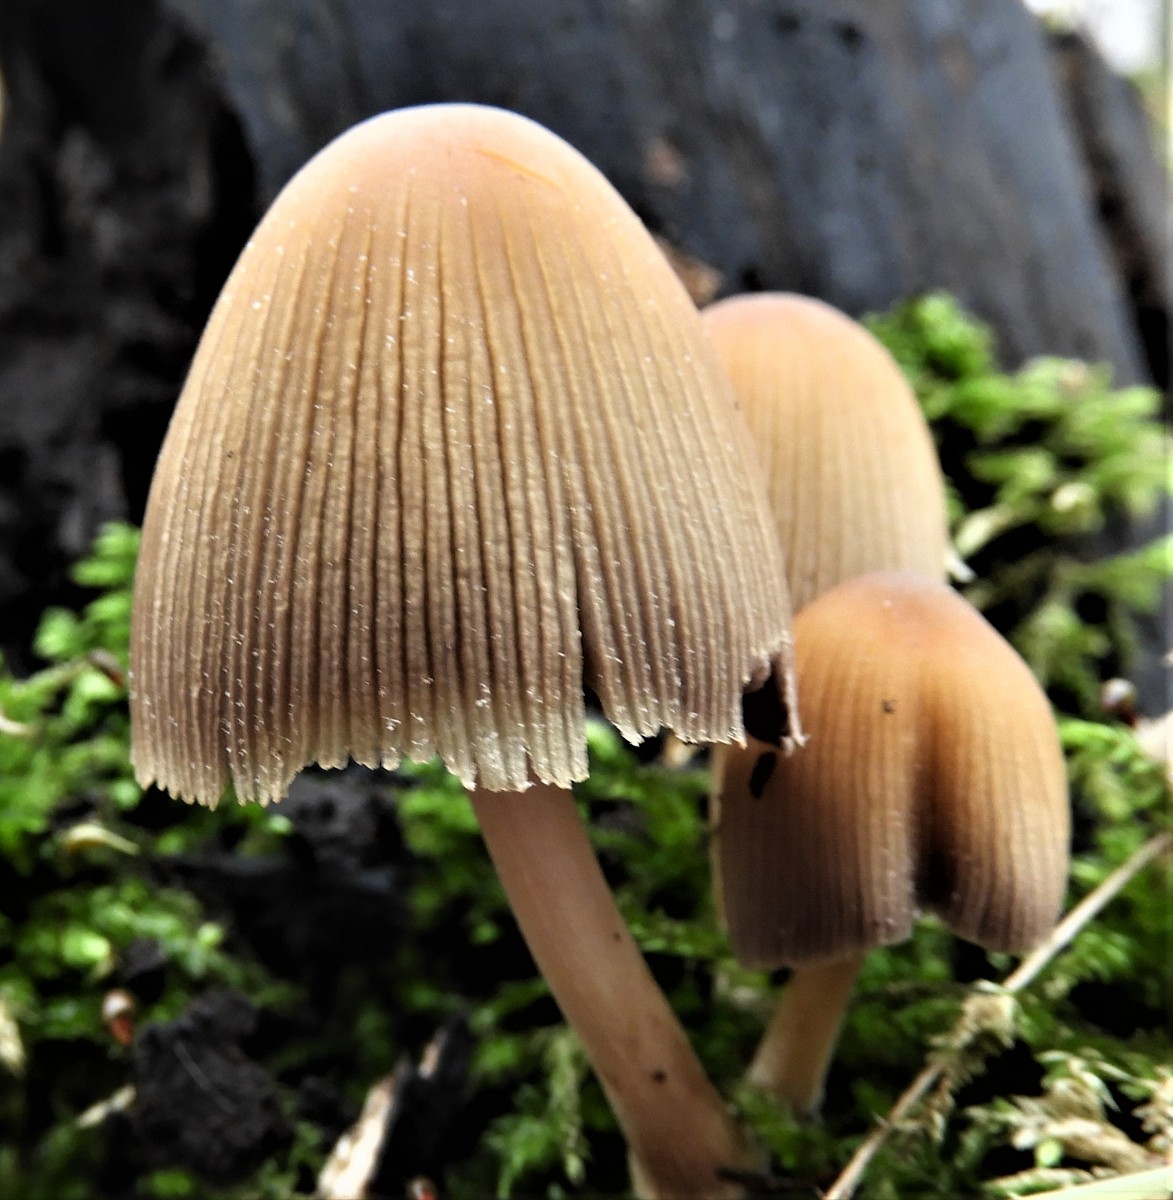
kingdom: Fungi
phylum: Basidiomycota
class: Agaricomycetes
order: Agaricales
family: Psathyrellaceae
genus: Coprinellus
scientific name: Coprinellus micaceus
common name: glimmer-blækhat
